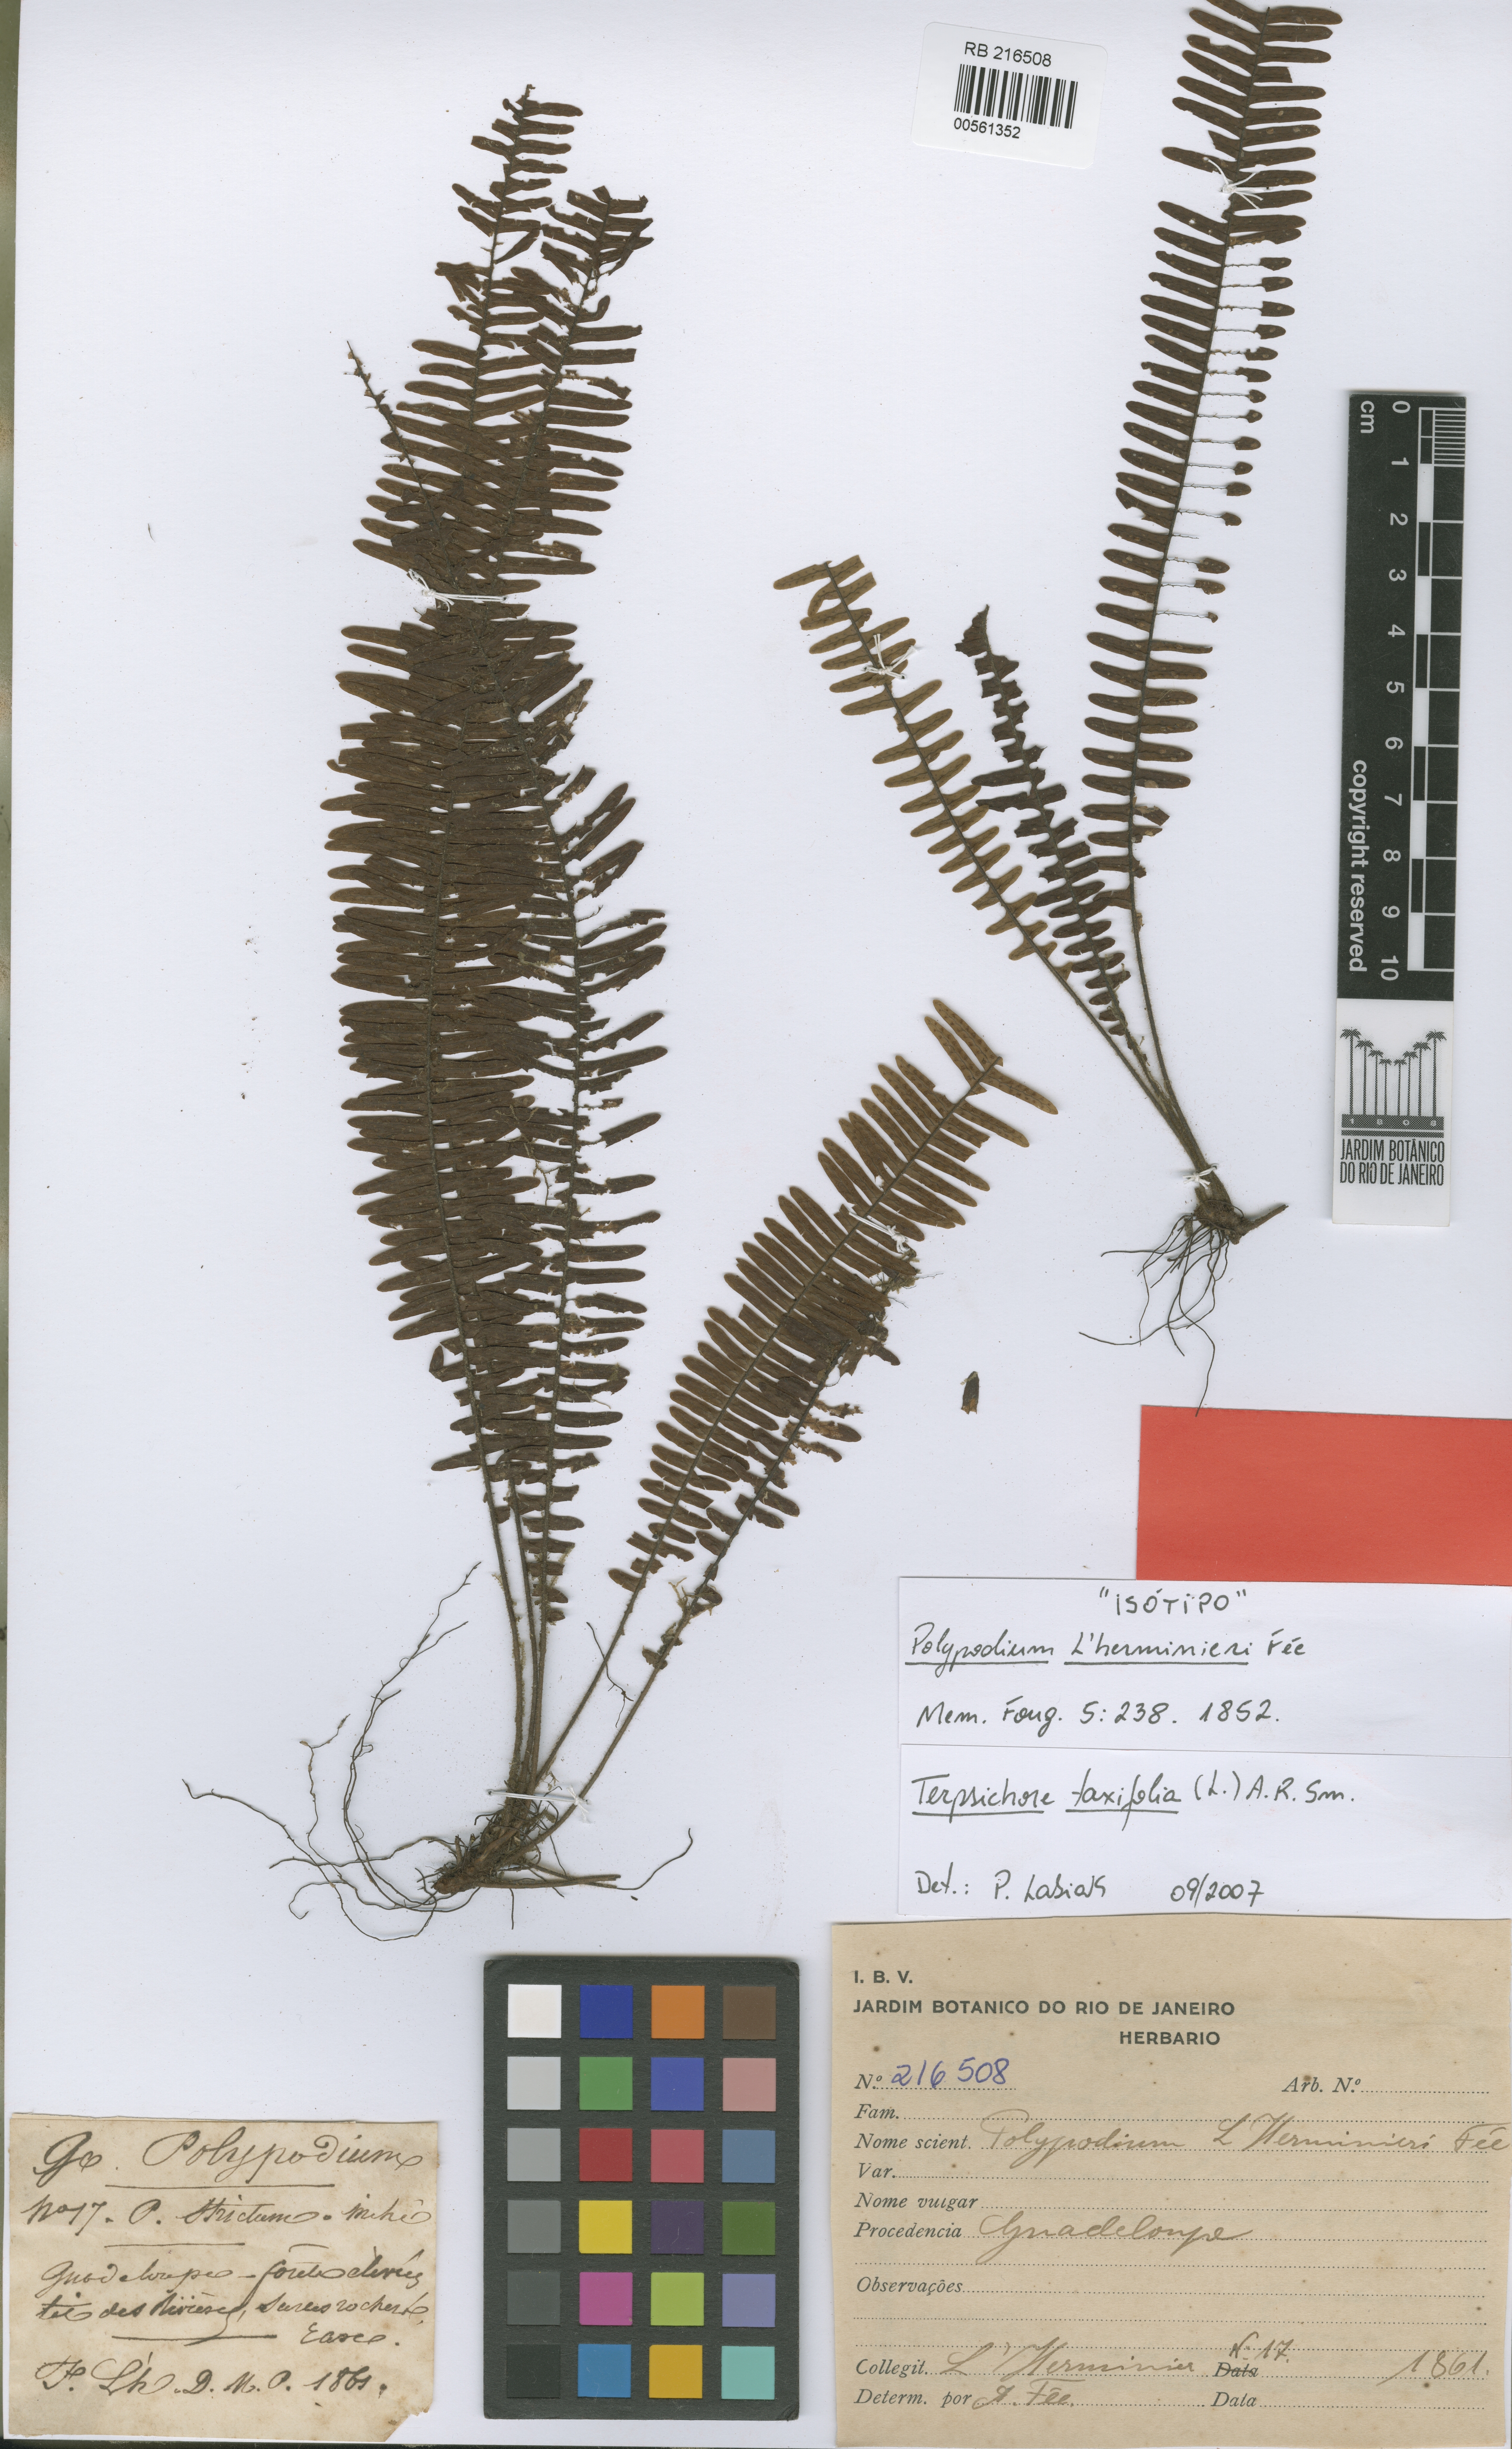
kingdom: Plantae
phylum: Tracheophyta
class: Polypodiopsida
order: Polypodiales
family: Polypodiaceae
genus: Mycopteris
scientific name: Mycopteris taxifolia
